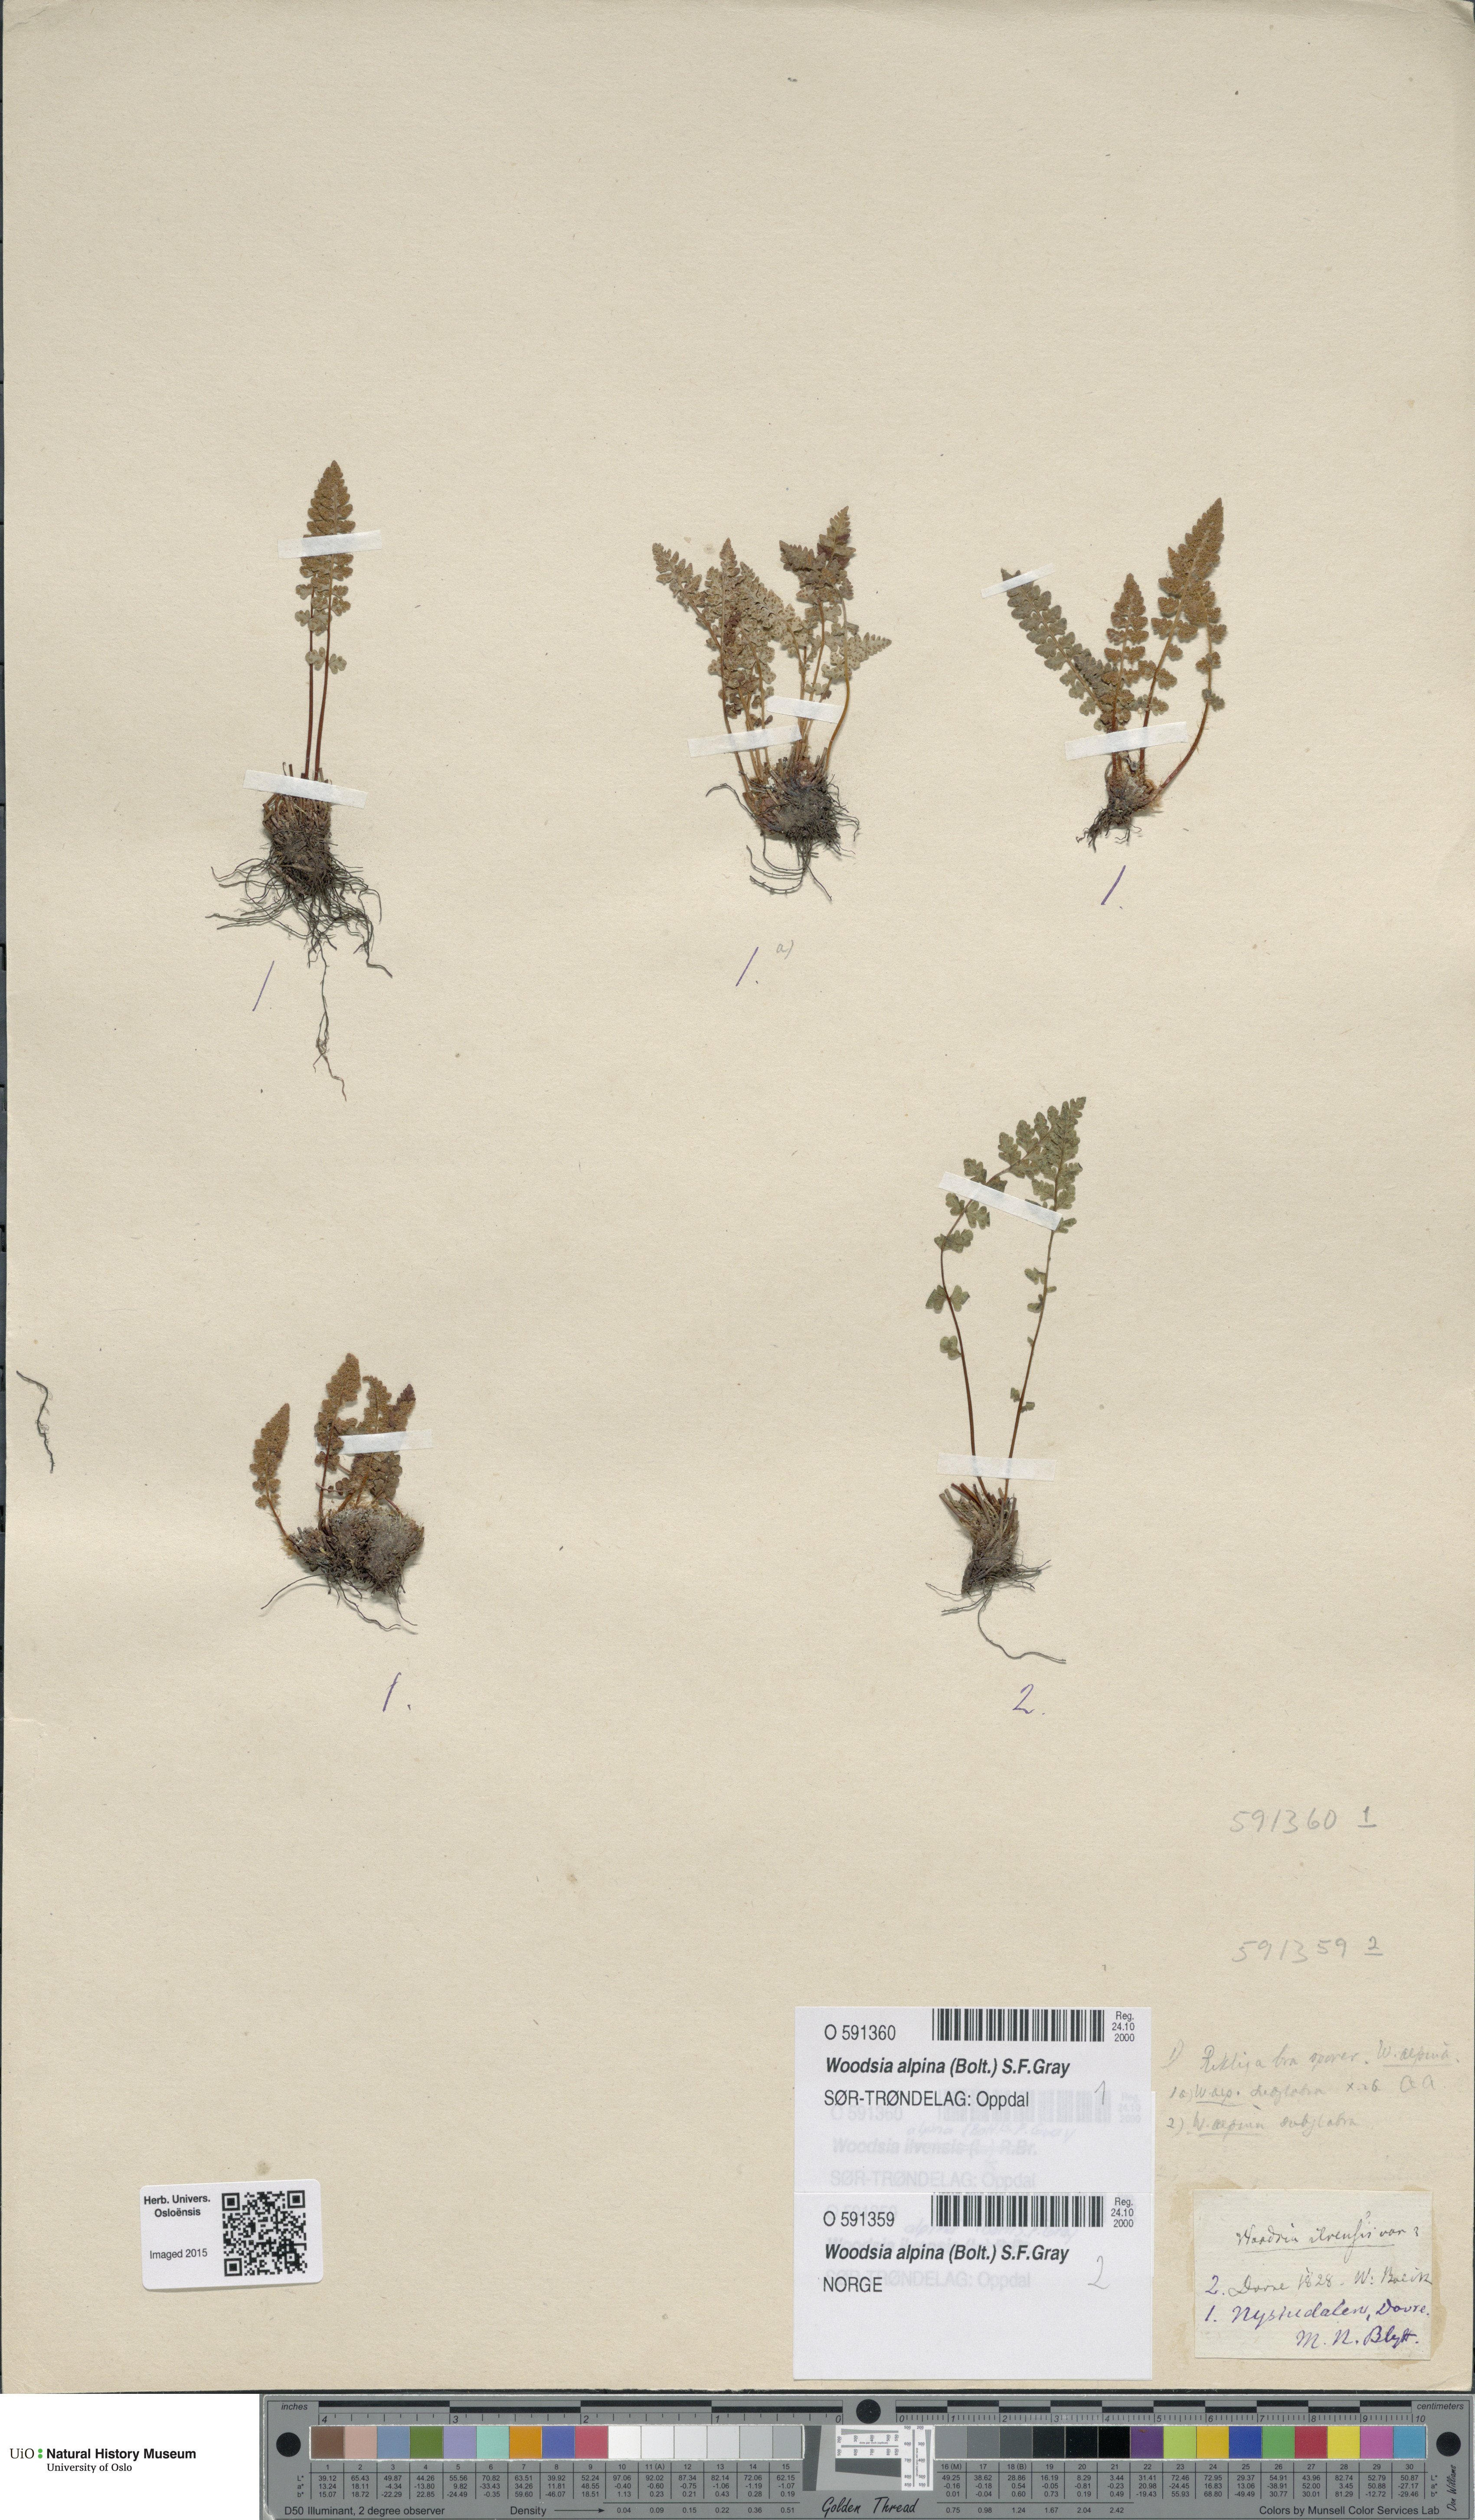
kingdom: Plantae
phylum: Tracheophyta
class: Polypodiopsida
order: Polypodiales
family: Woodsiaceae
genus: Woodsia
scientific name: Woodsia alpina
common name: Alpine woodsia
